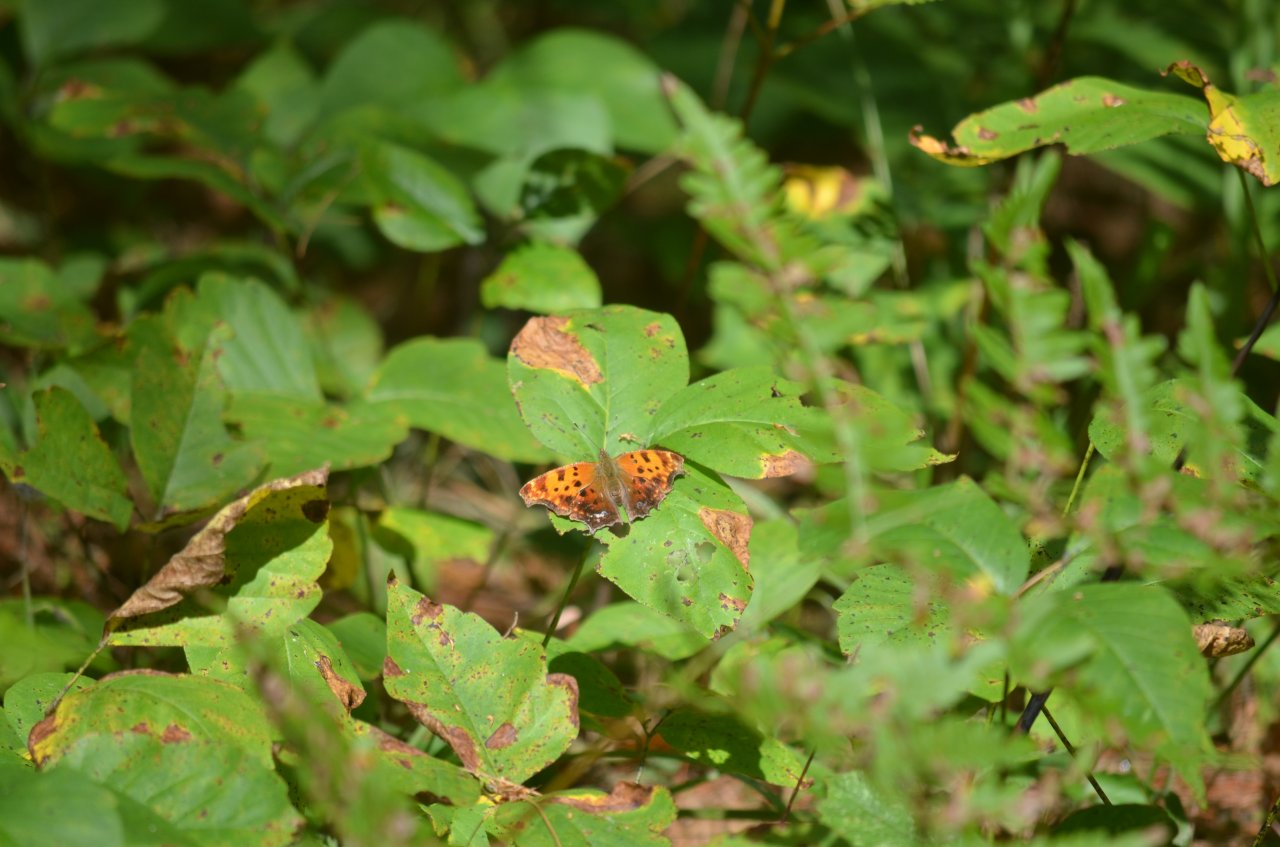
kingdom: Animalia
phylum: Arthropoda
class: Insecta
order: Lepidoptera
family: Nymphalidae
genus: Polygonia
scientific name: Polygonia comma
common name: Eastern Comma
